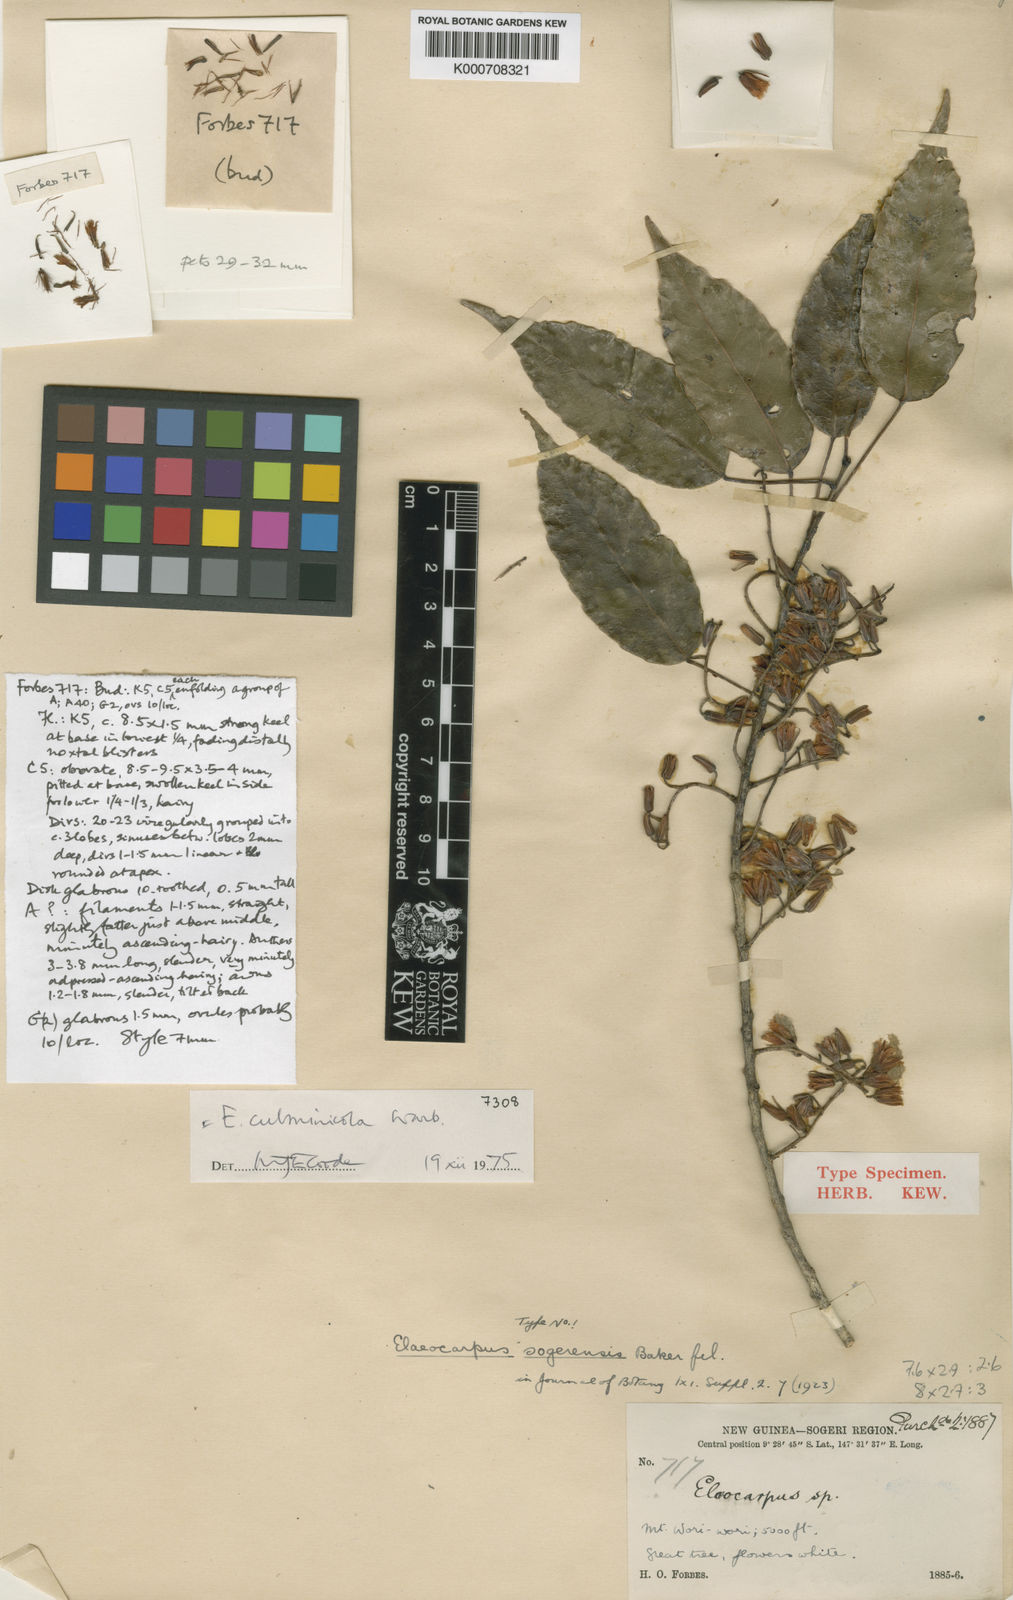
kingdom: Plantae
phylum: Tracheophyta
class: Magnoliopsida
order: Oxalidales
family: Elaeocarpaceae
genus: Elaeocarpus
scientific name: Elaeocarpus culminicola
